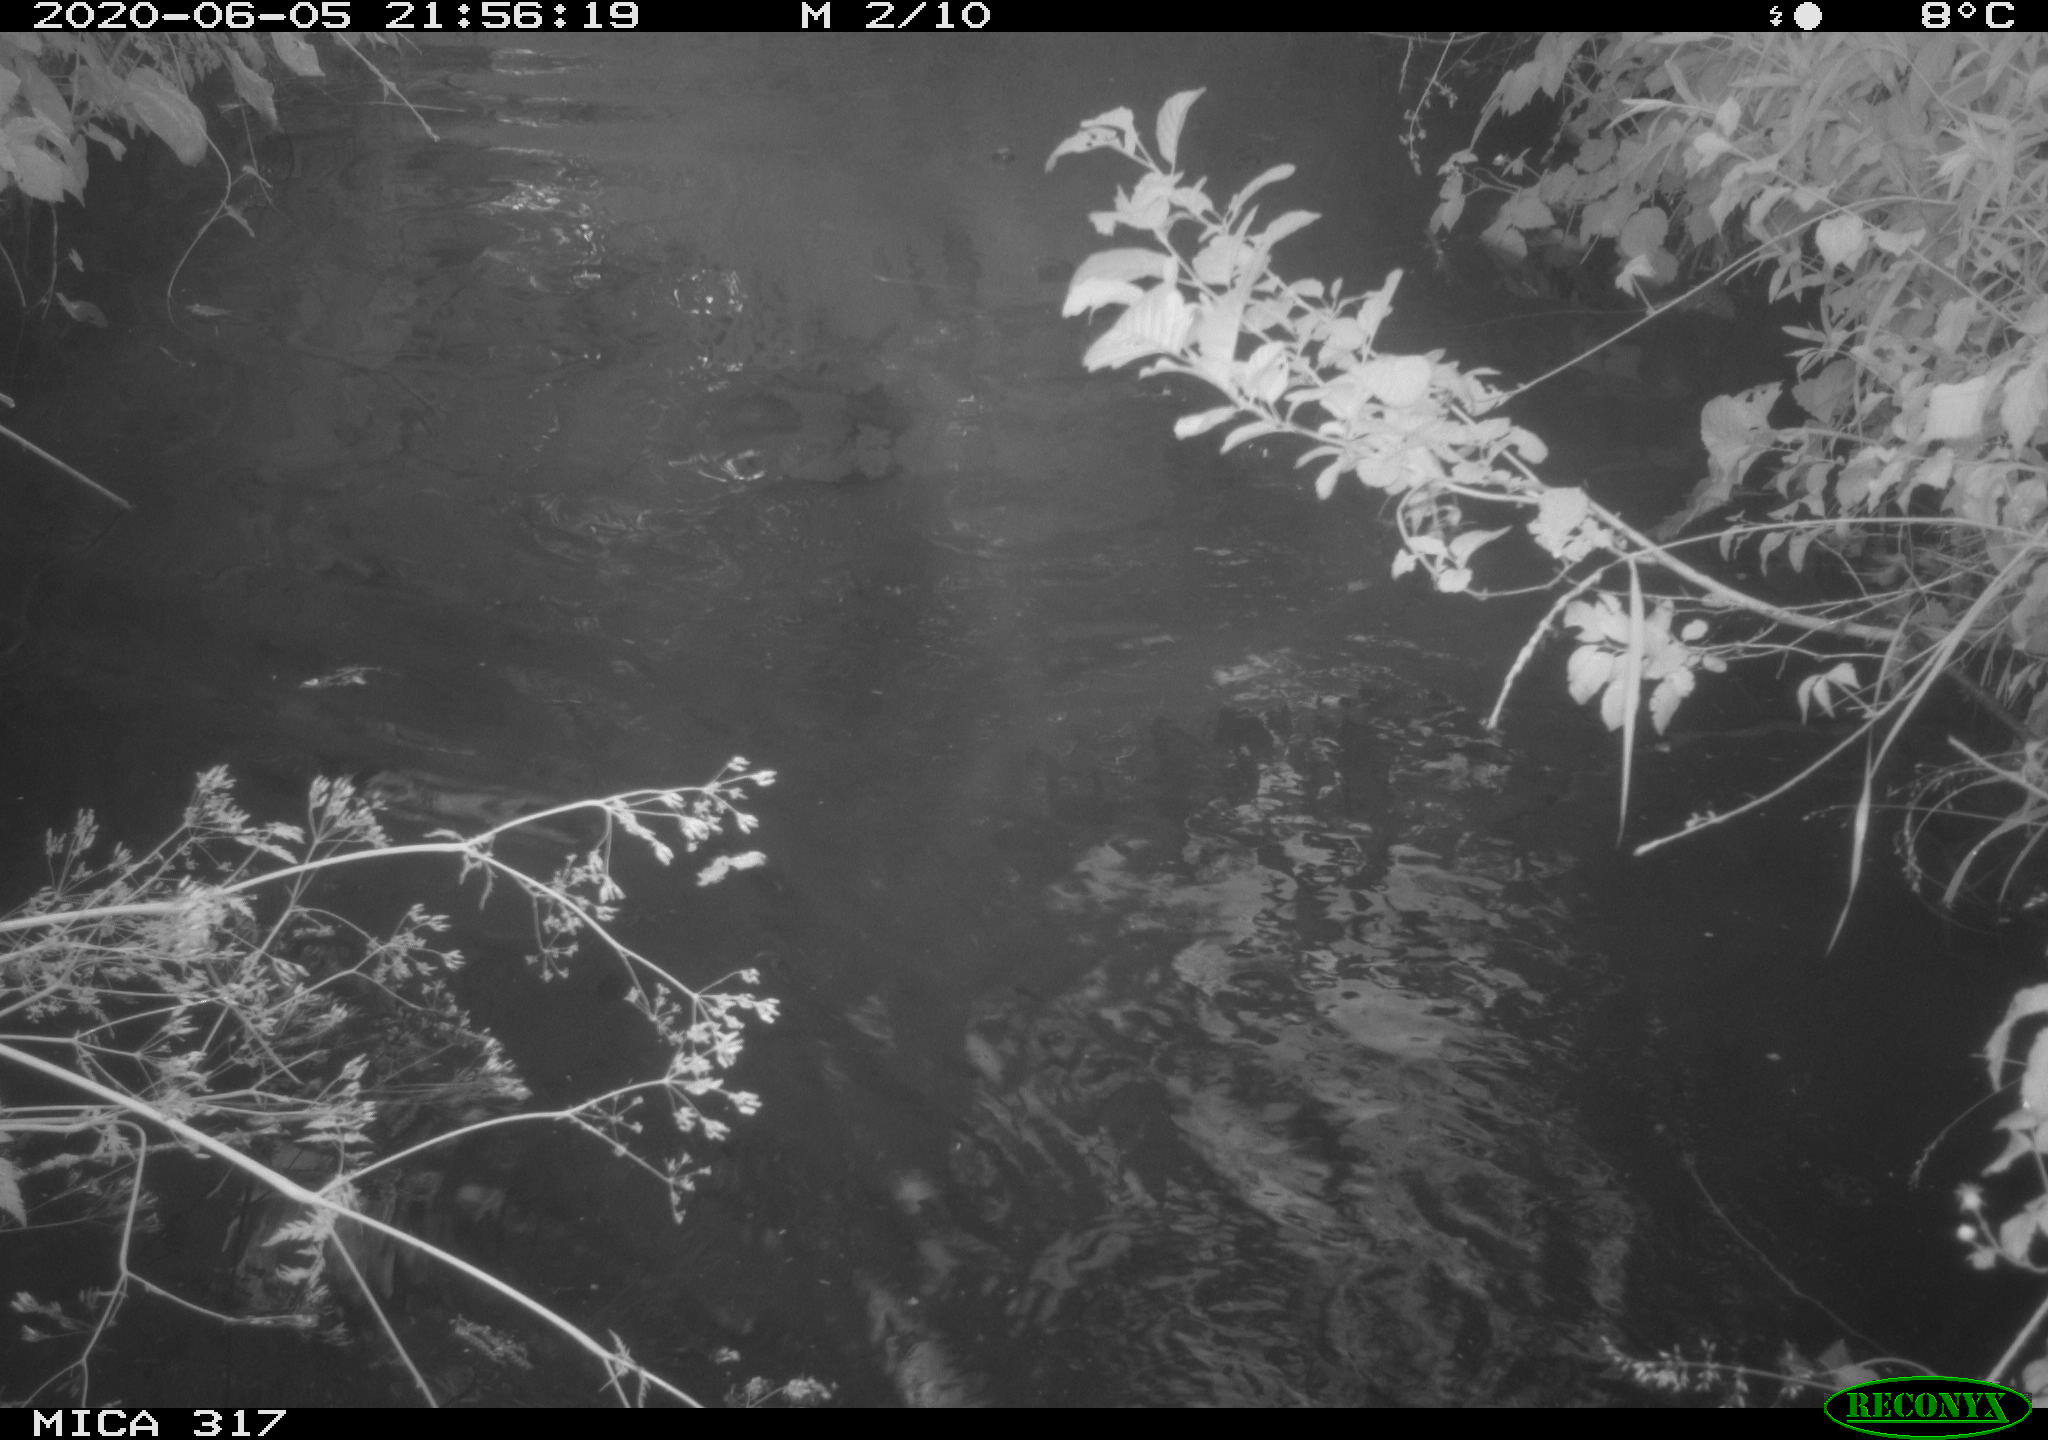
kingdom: Animalia
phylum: Chordata
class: Aves
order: Anseriformes
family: Anatidae
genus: Anas
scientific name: Anas platyrhynchos
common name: Mallard
